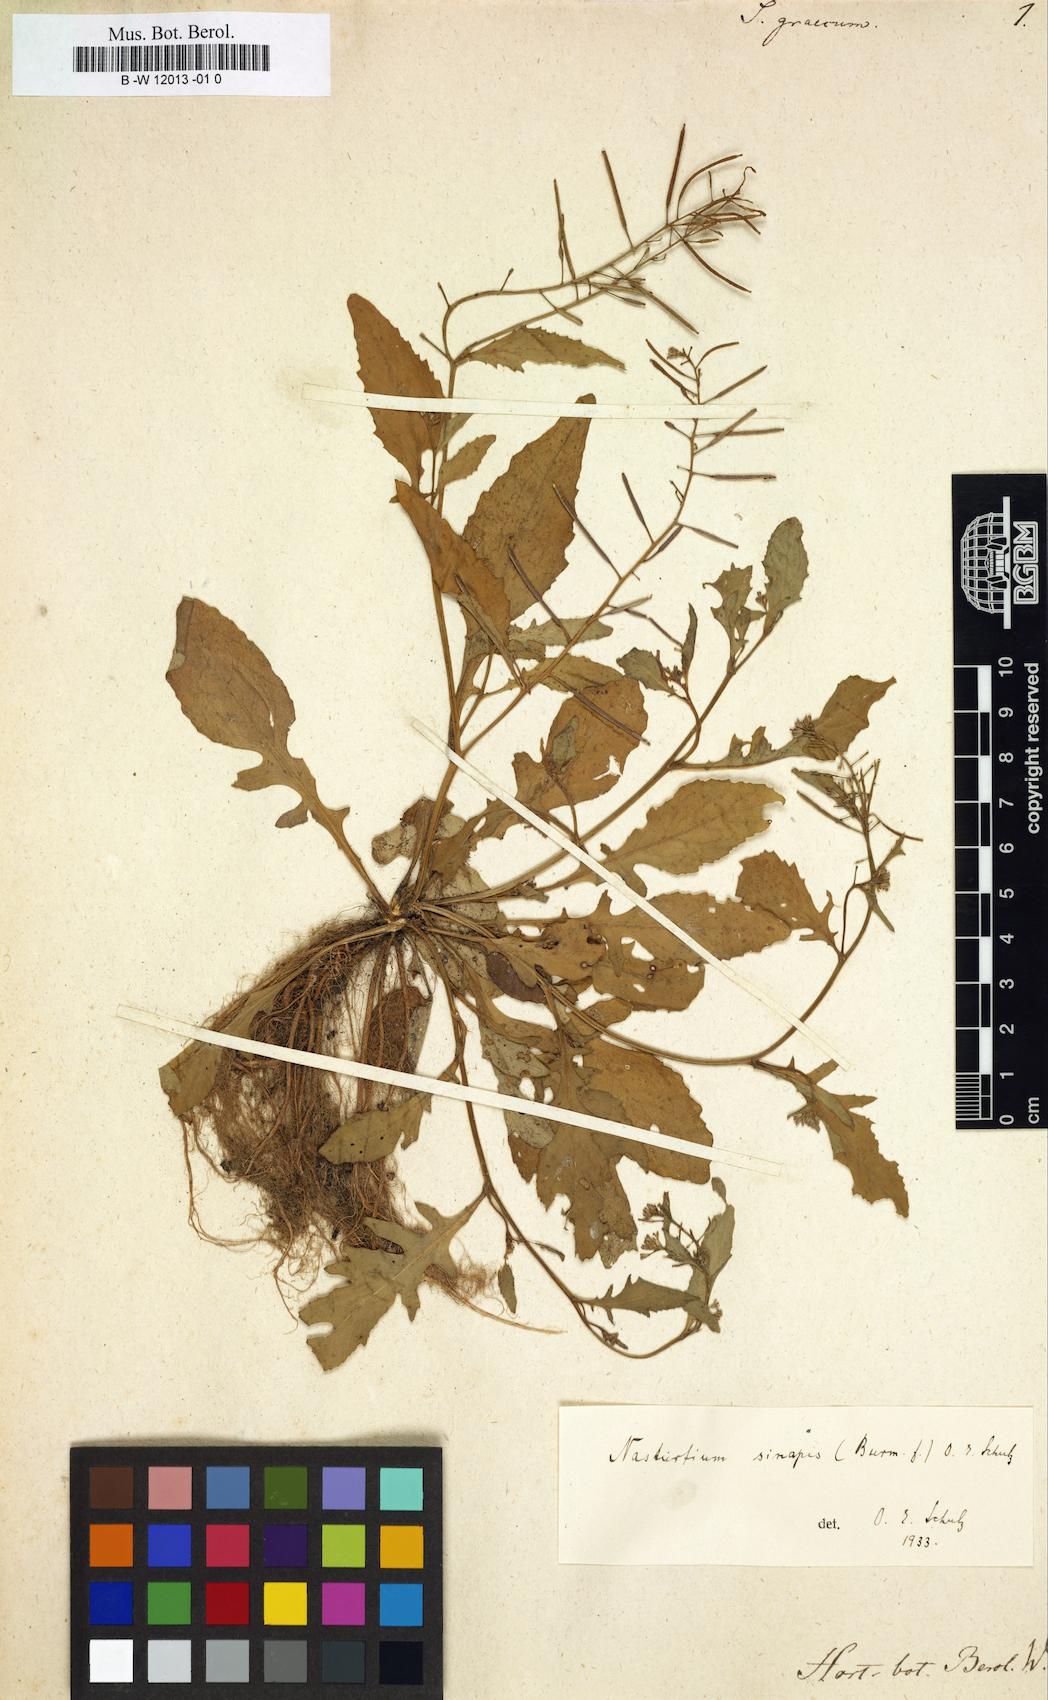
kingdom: Plantae
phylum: Tracheophyta
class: Magnoliopsida
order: Brassicales
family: Brassicaceae
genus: Sisymbrium
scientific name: Sisymbrium
